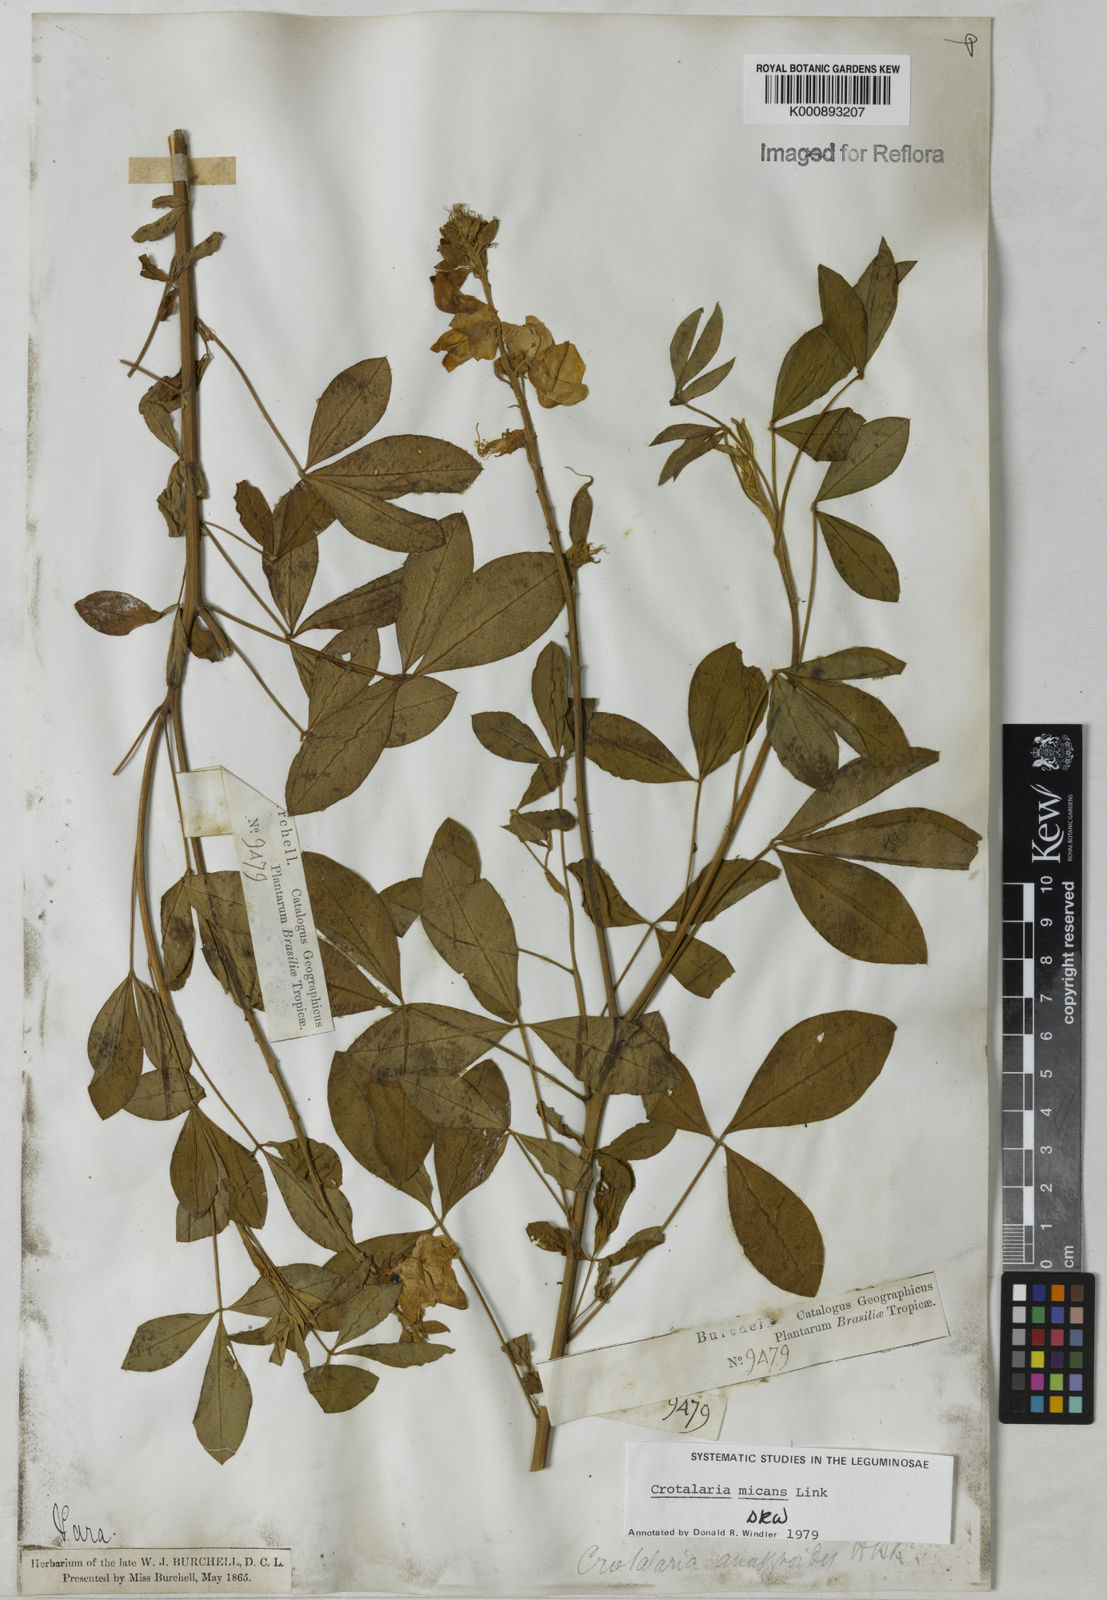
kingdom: Plantae
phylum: Tracheophyta
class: Magnoliopsida
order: Fabales
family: Fabaceae
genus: Crotalaria
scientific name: Crotalaria micans
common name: Caracas rattlebox
